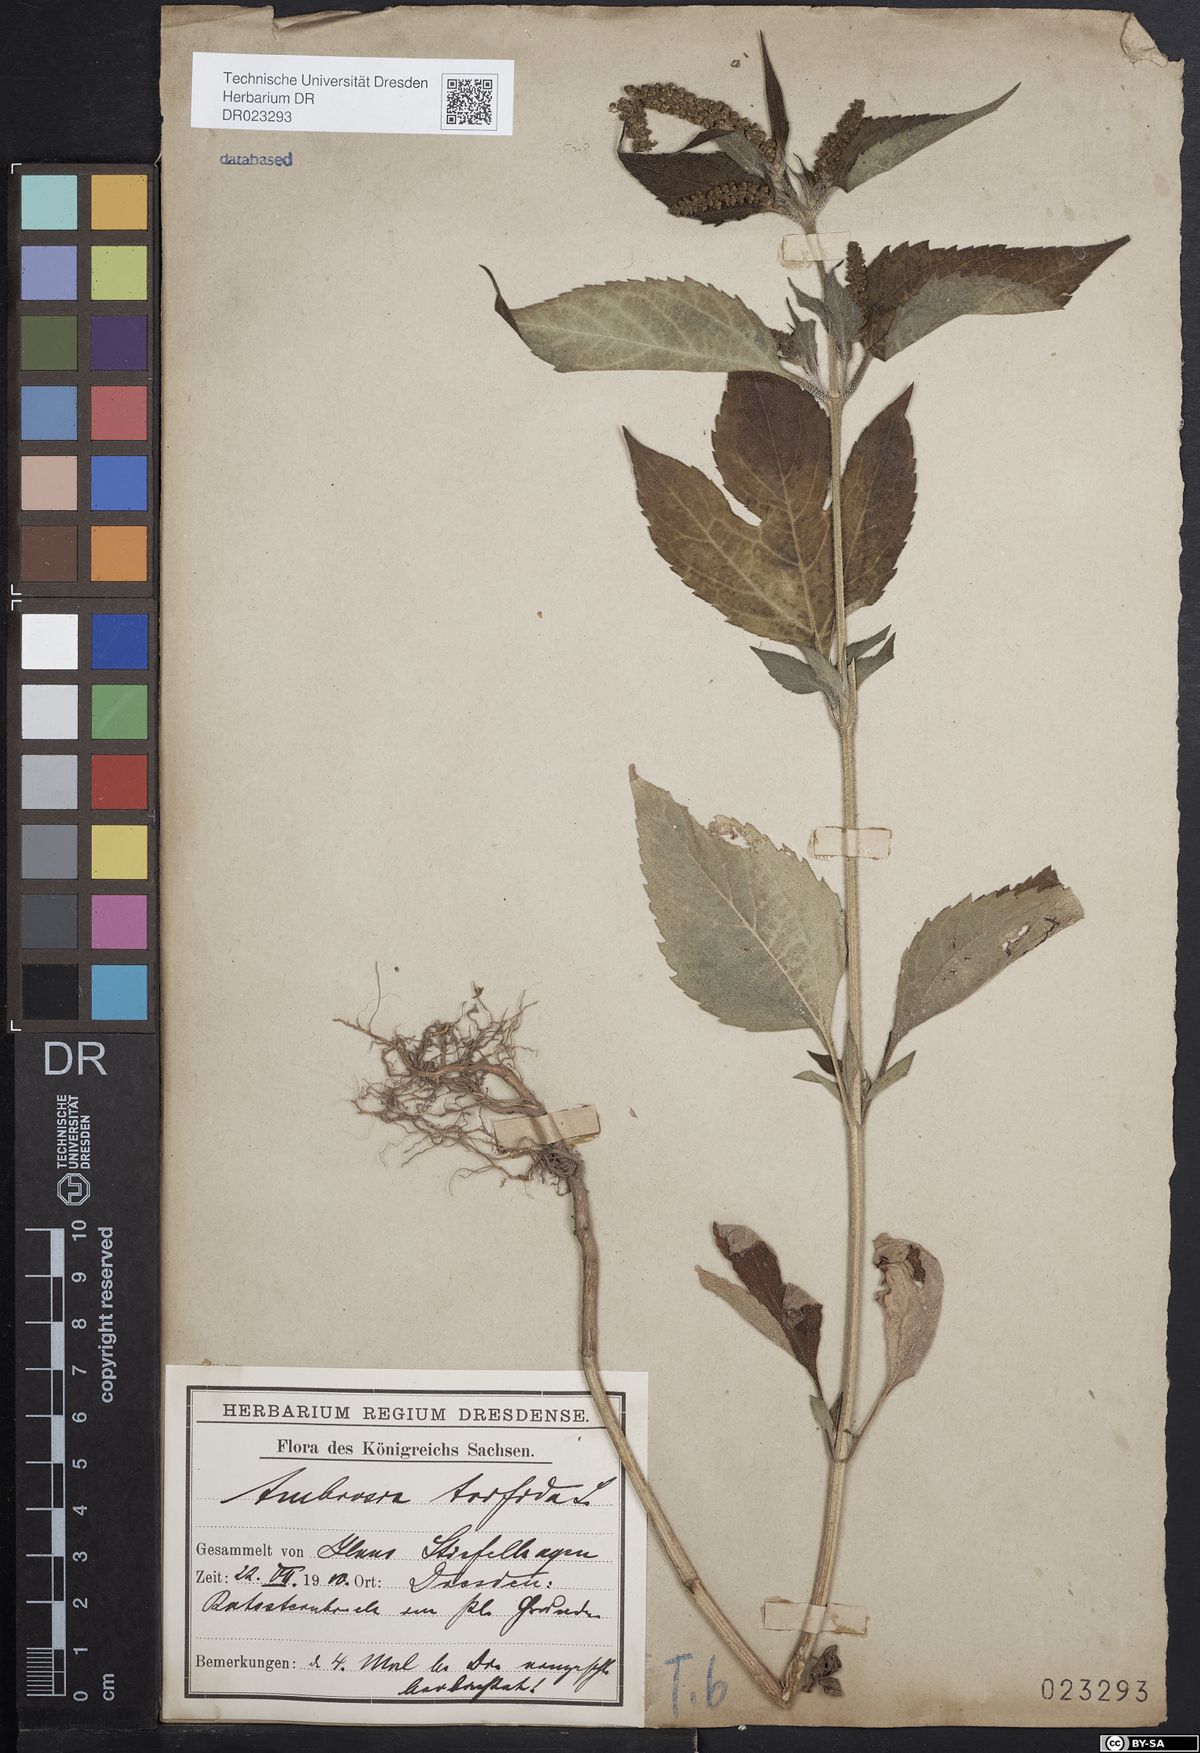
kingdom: Plantae
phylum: Tracheophyta
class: Magnoliopsida
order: Asterales
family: Asteraceae
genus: Ambrosia
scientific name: Ambrosia trifida
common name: Giant ragweed
